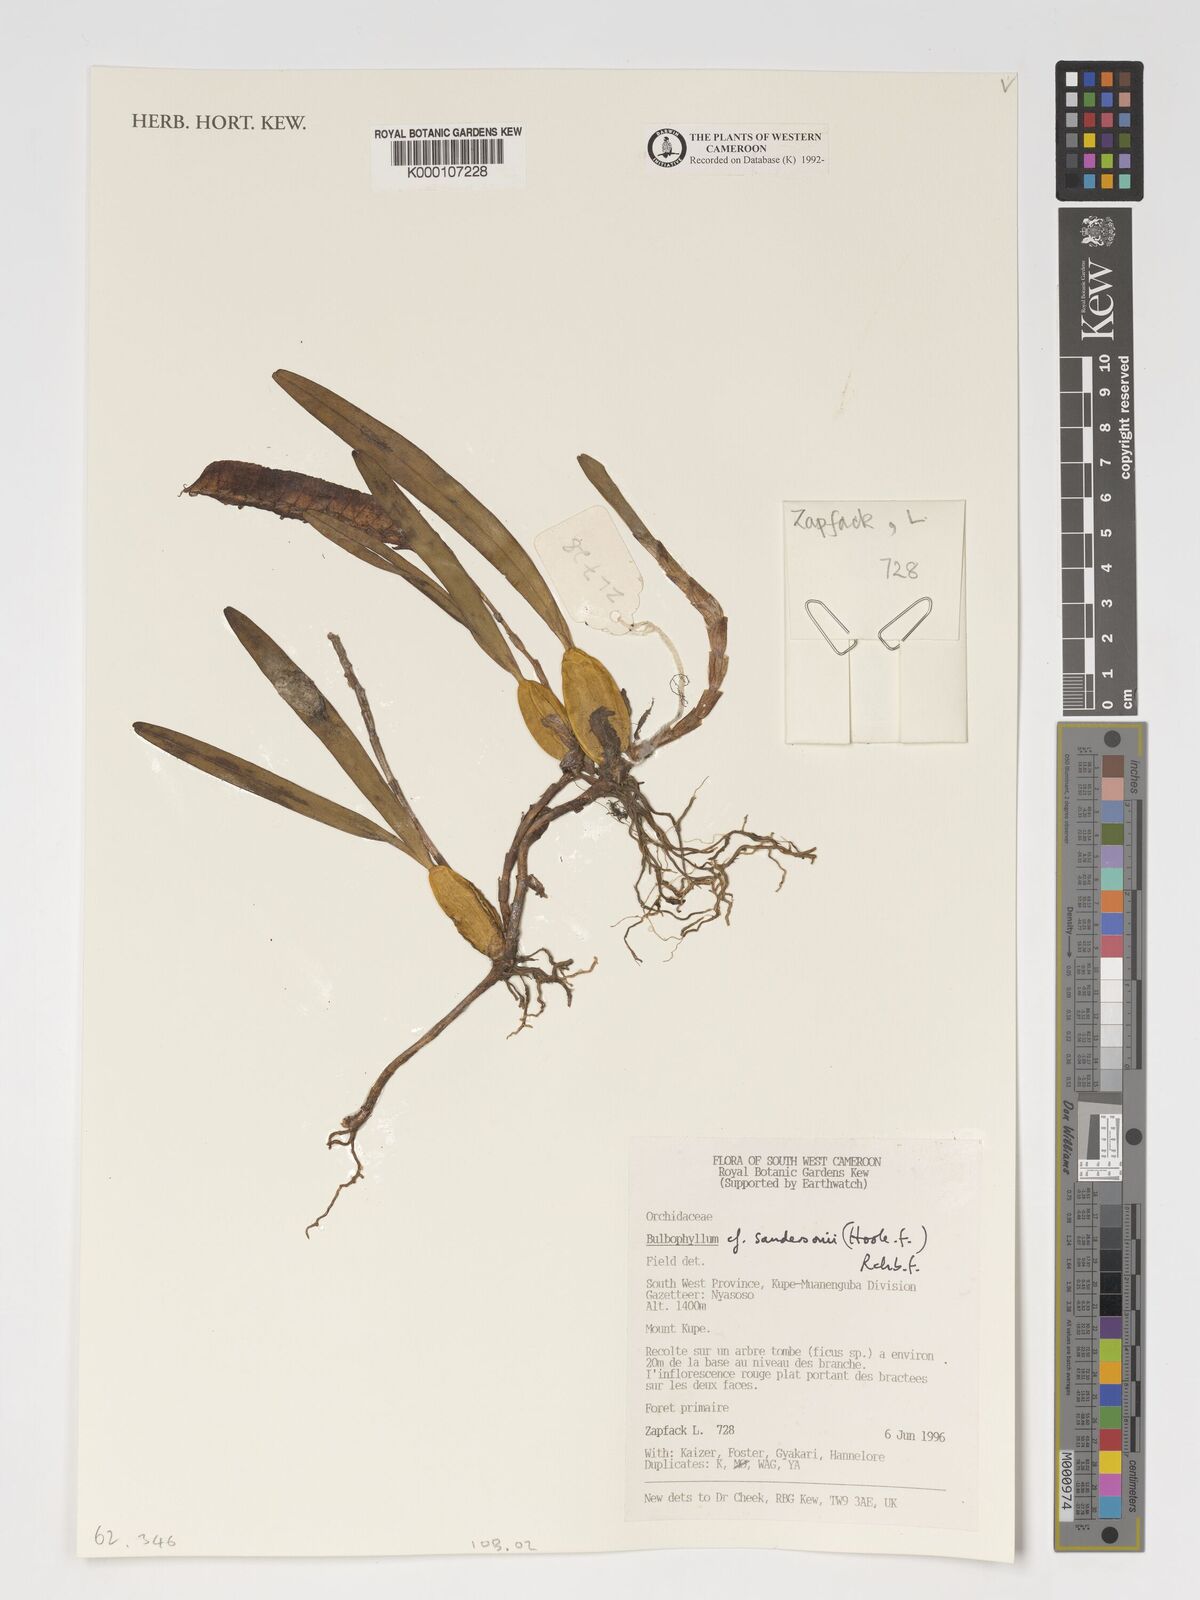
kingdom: Plantae
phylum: Tracheophyta
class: Liliopsida
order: Asparagales
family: Orchidaceae
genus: Bulbophyllum
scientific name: Bulbophyllum sandersonii
